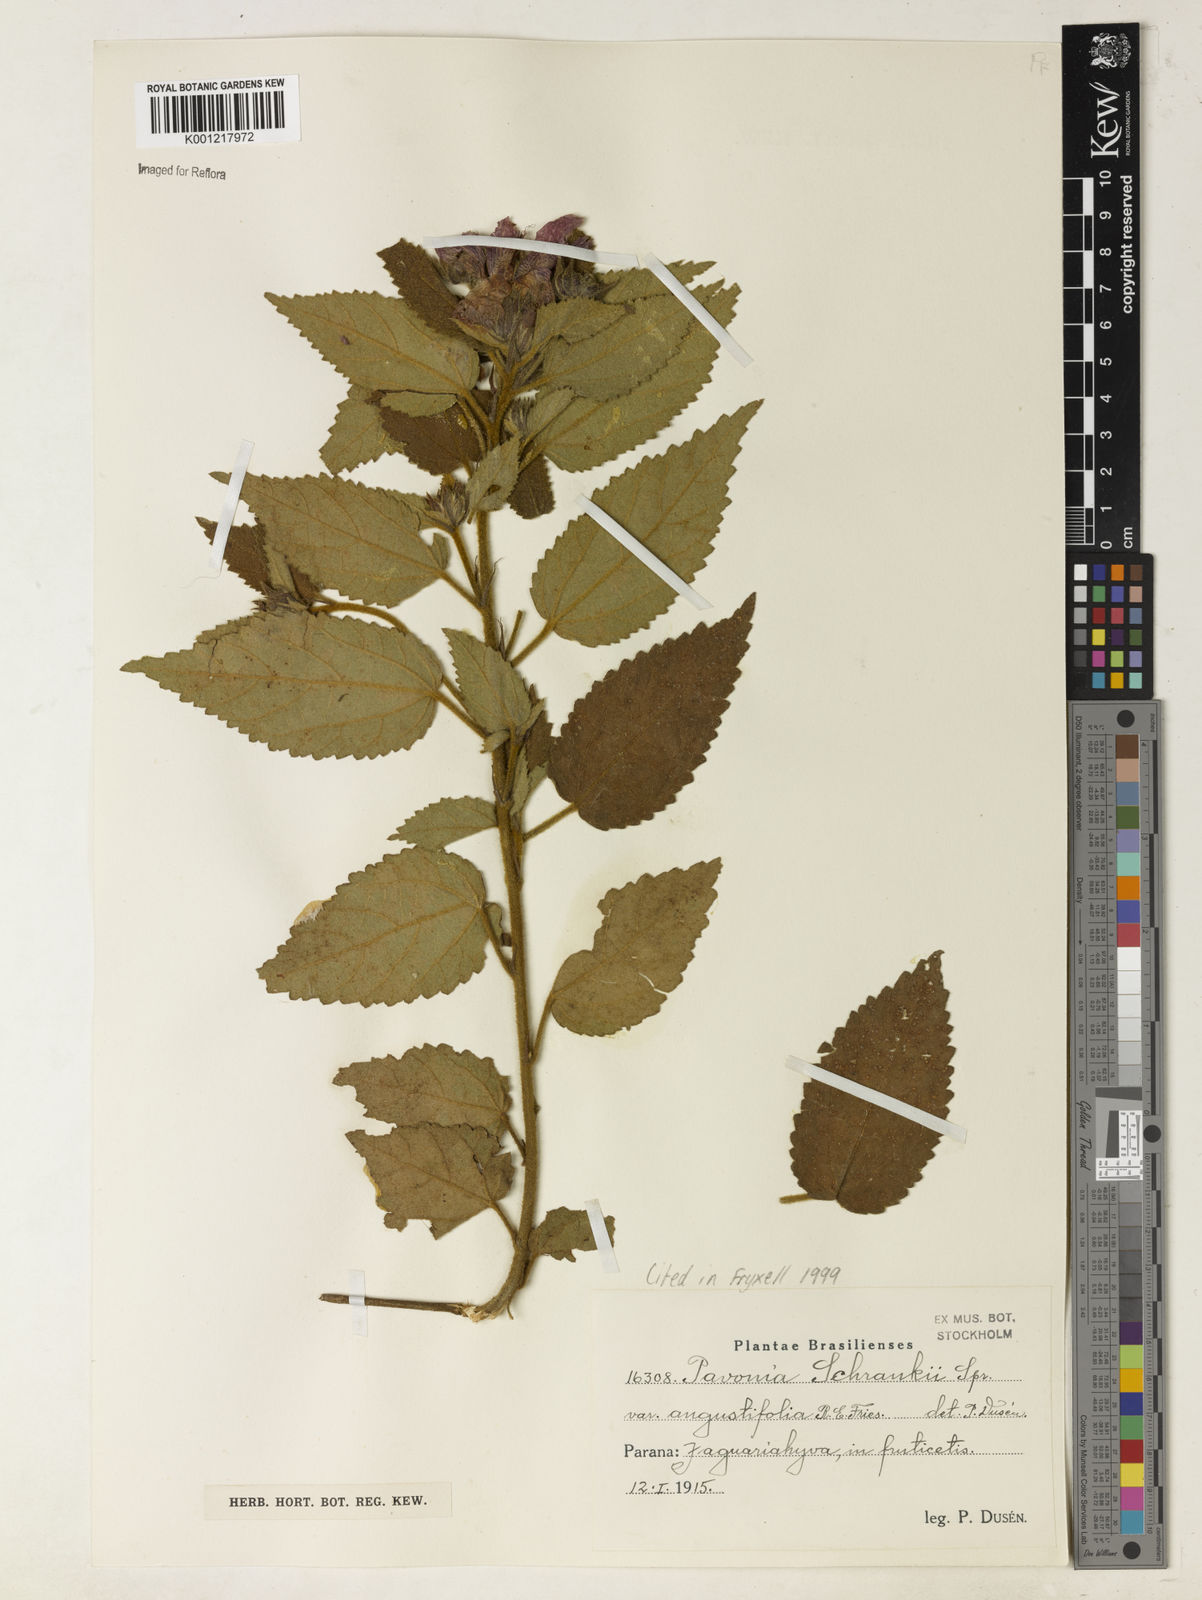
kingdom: Plantae
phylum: Tracheophyta
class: Magnoliopsida
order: Malvales
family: Malvaceae
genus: Pavonia
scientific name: Pavonia schrankii
